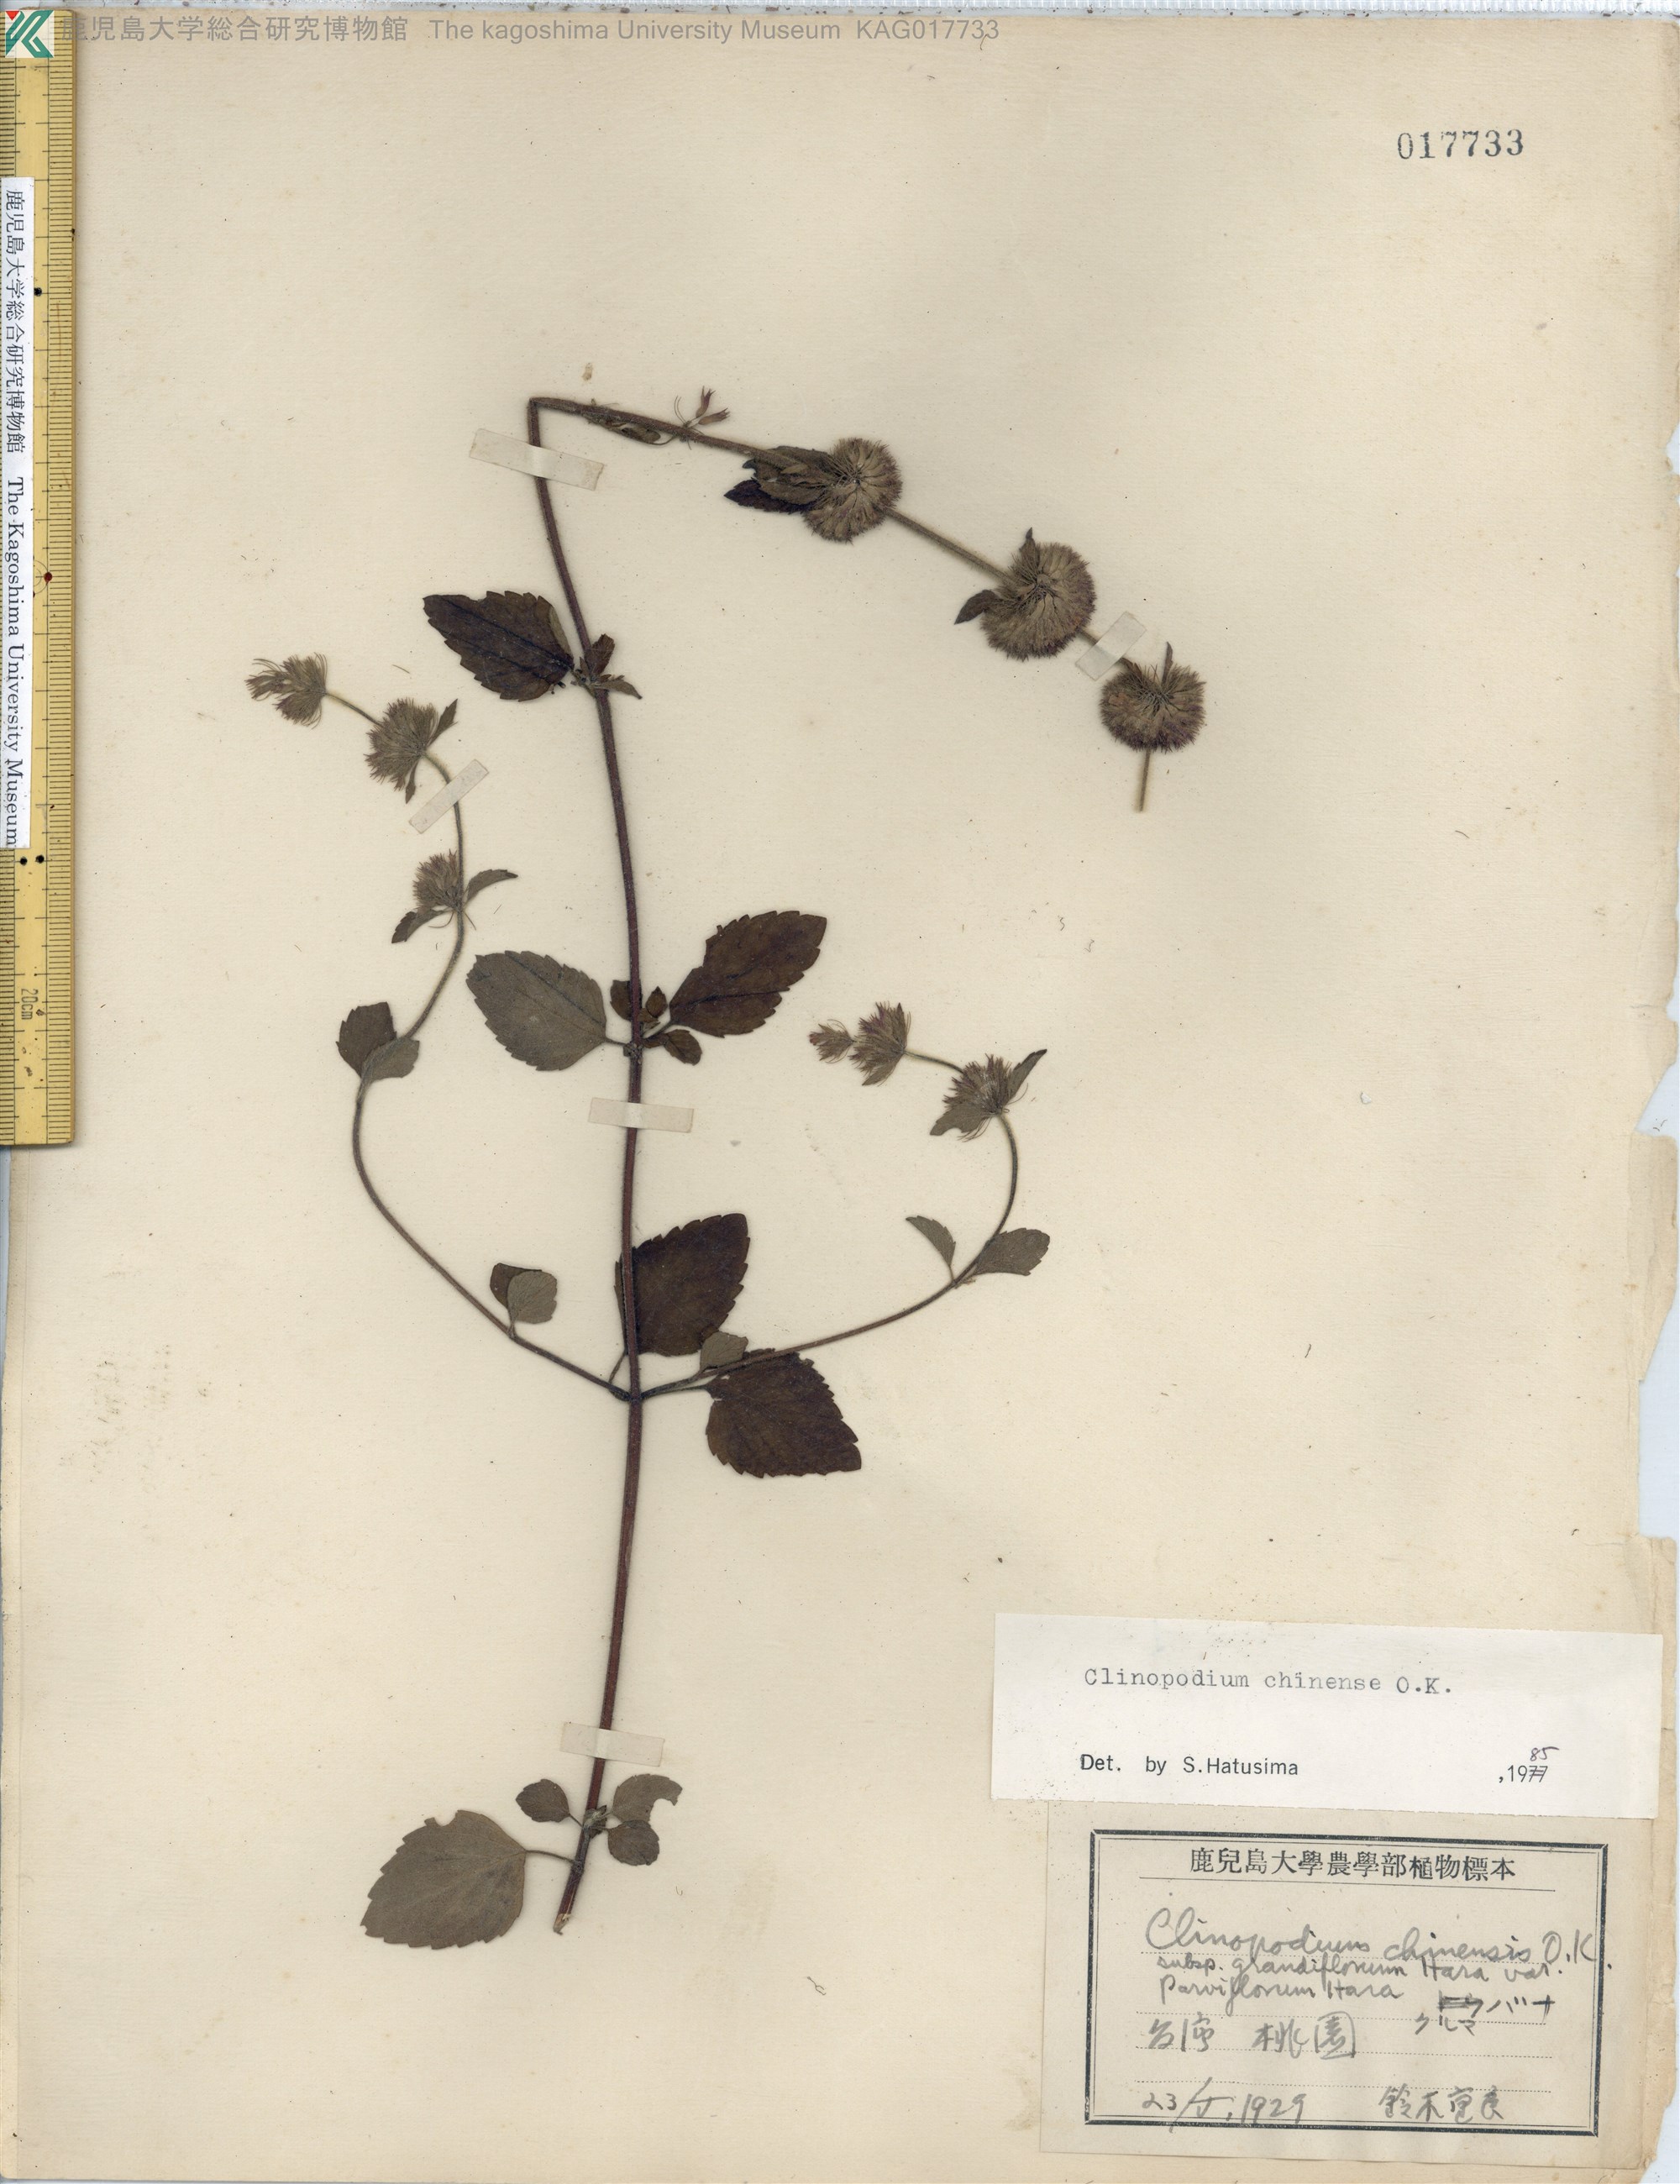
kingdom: Plantae
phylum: Tracheophyta
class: Magnoliopsida
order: Lamiales
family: Lamiaceae
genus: Clinopodium
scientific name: Clinopodium chinense
